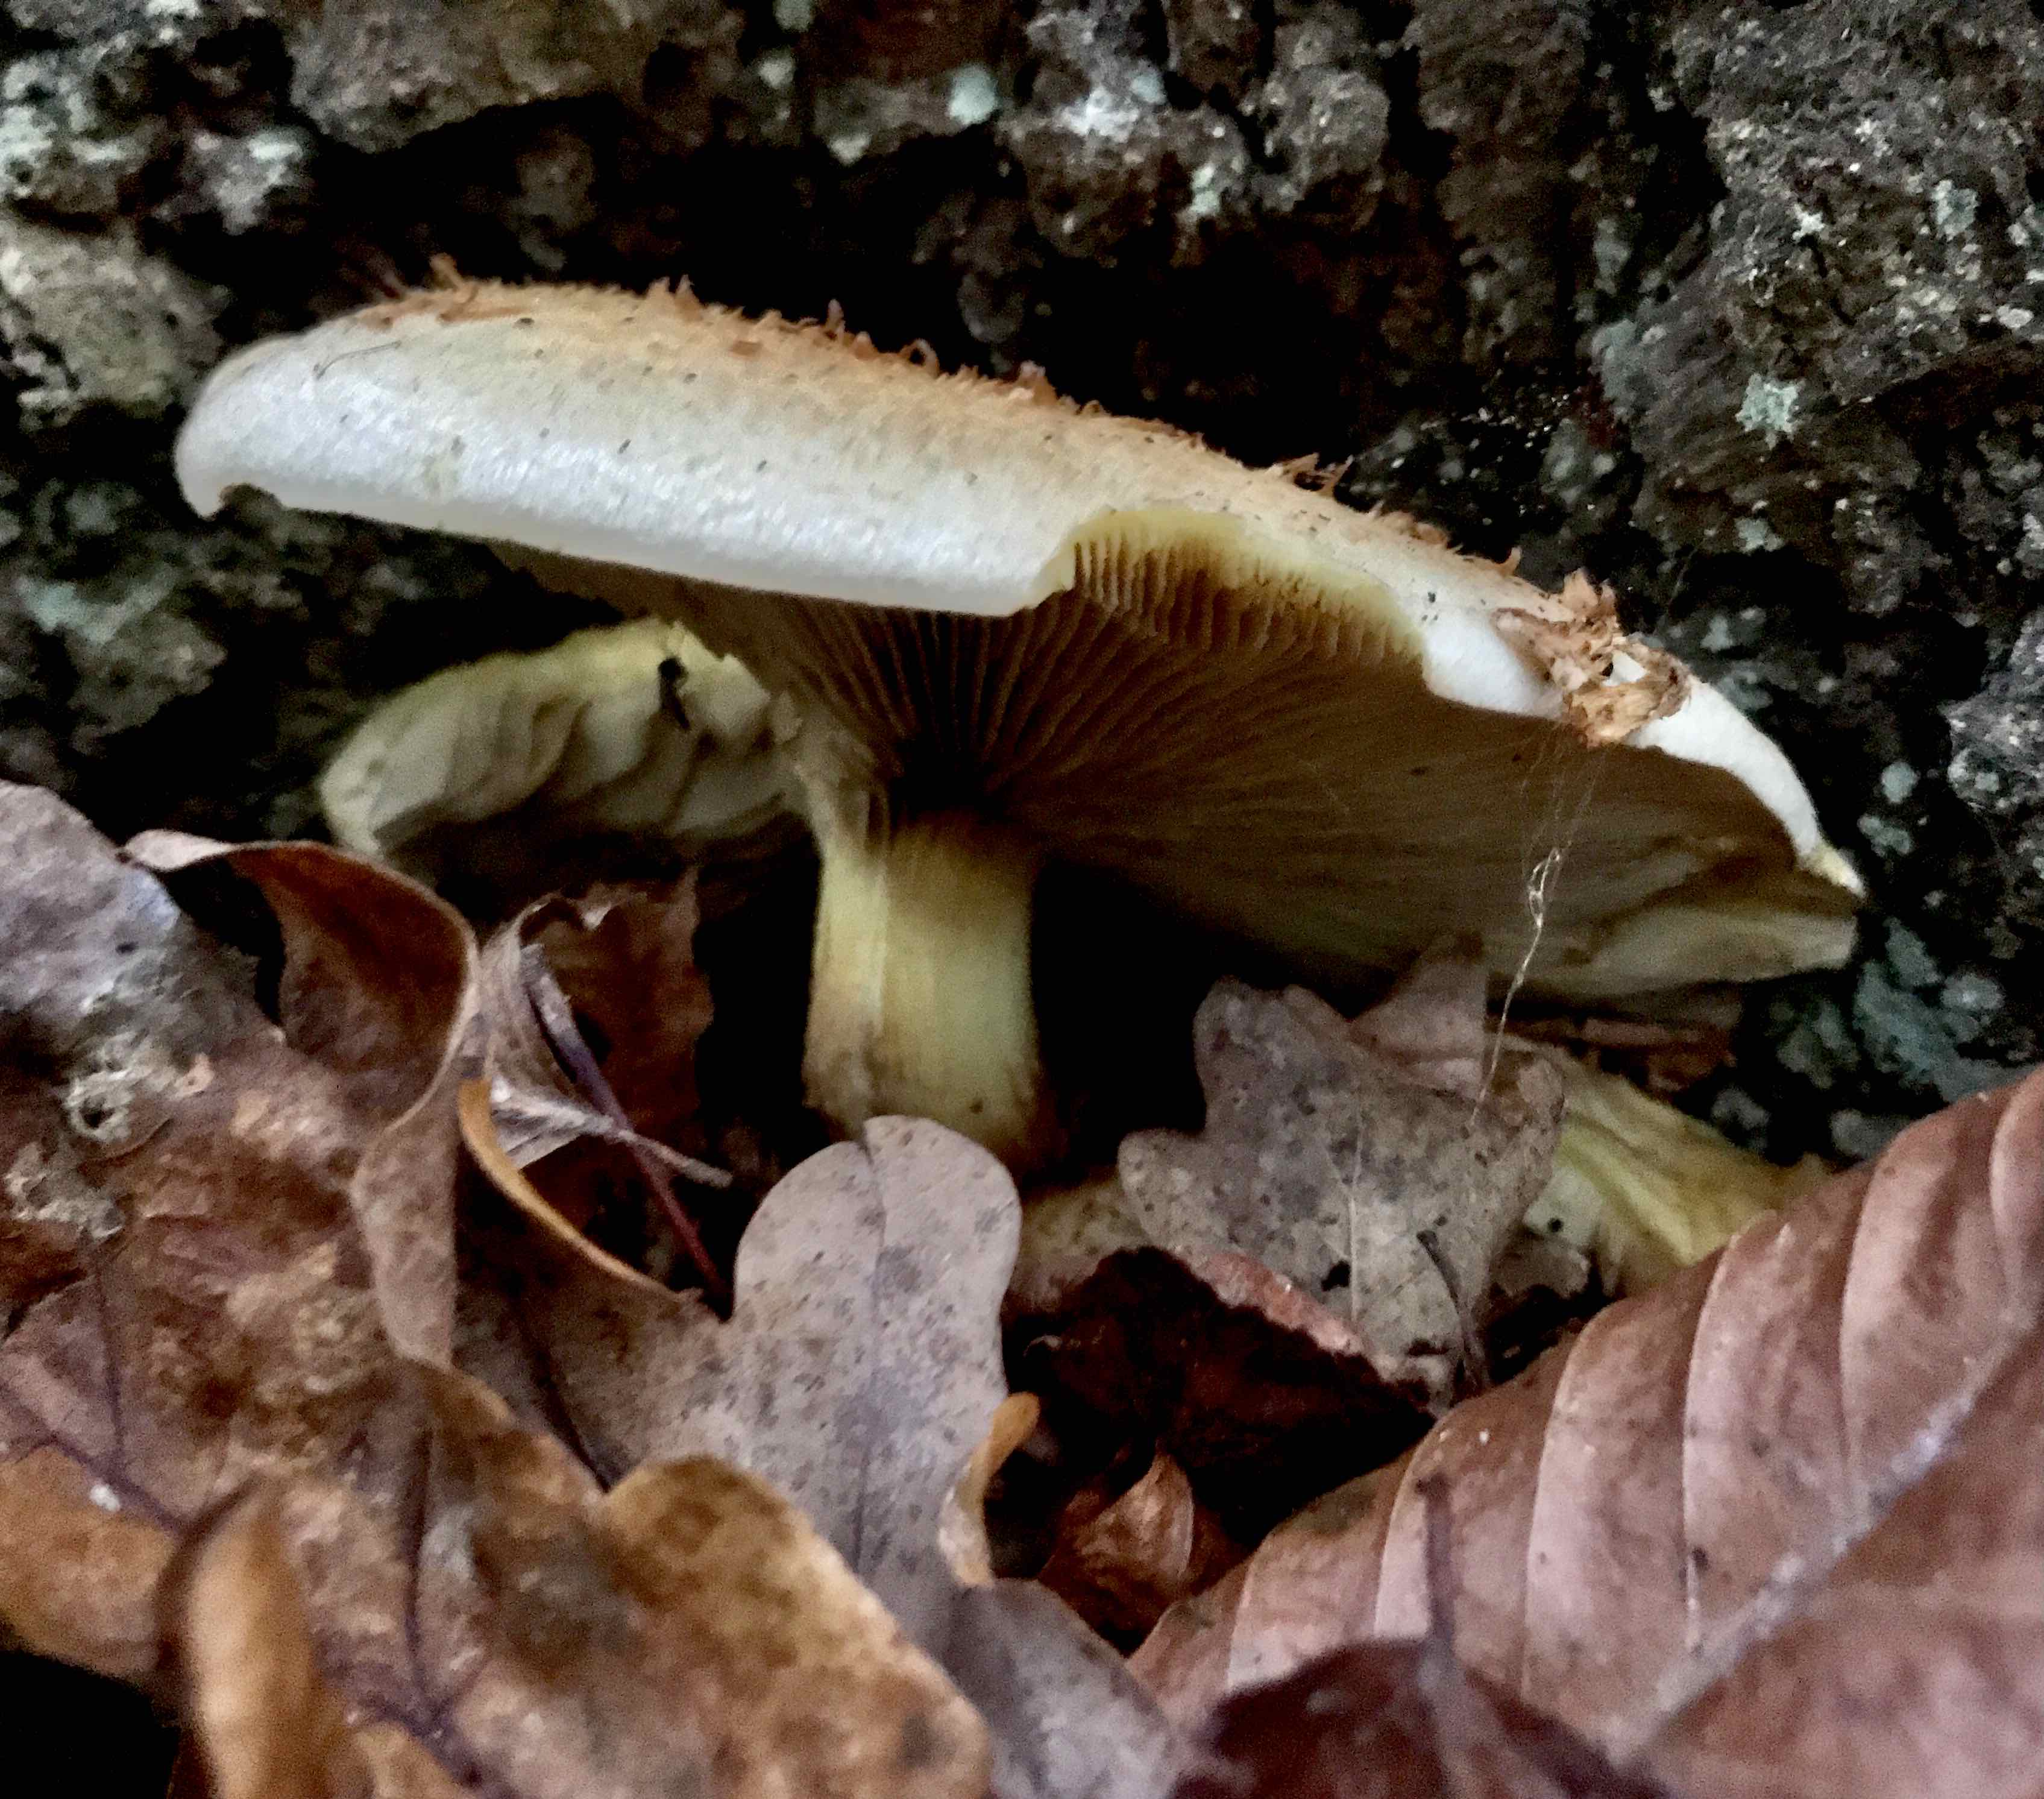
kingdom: Fungi
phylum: Basidiomycota
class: Agaricomycetes
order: Agaricales
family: Strophariaceae
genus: Pholiota
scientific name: Pholiota squarrosa
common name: krumskællet skælhat
